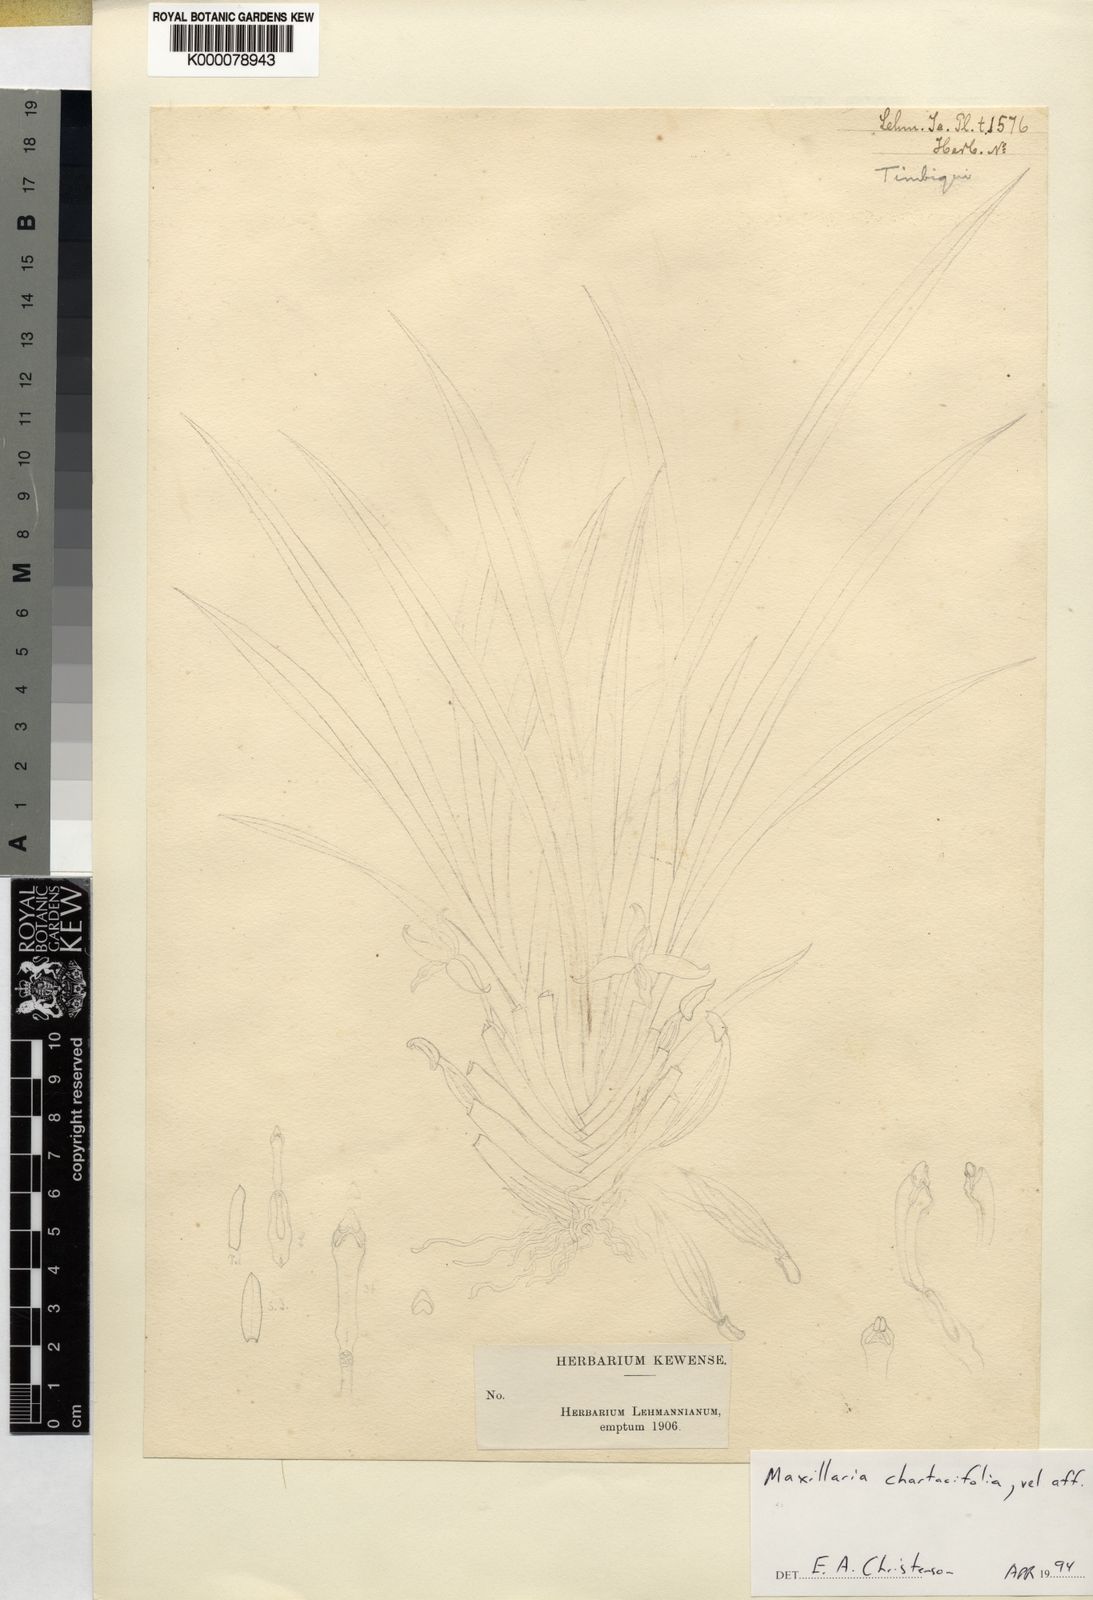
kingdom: Plantae
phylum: Tracheophyta
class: Liliopsida
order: Asparagales
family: Orchidaceae
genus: Maxillaria
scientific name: Maxillaria chartacifolia
